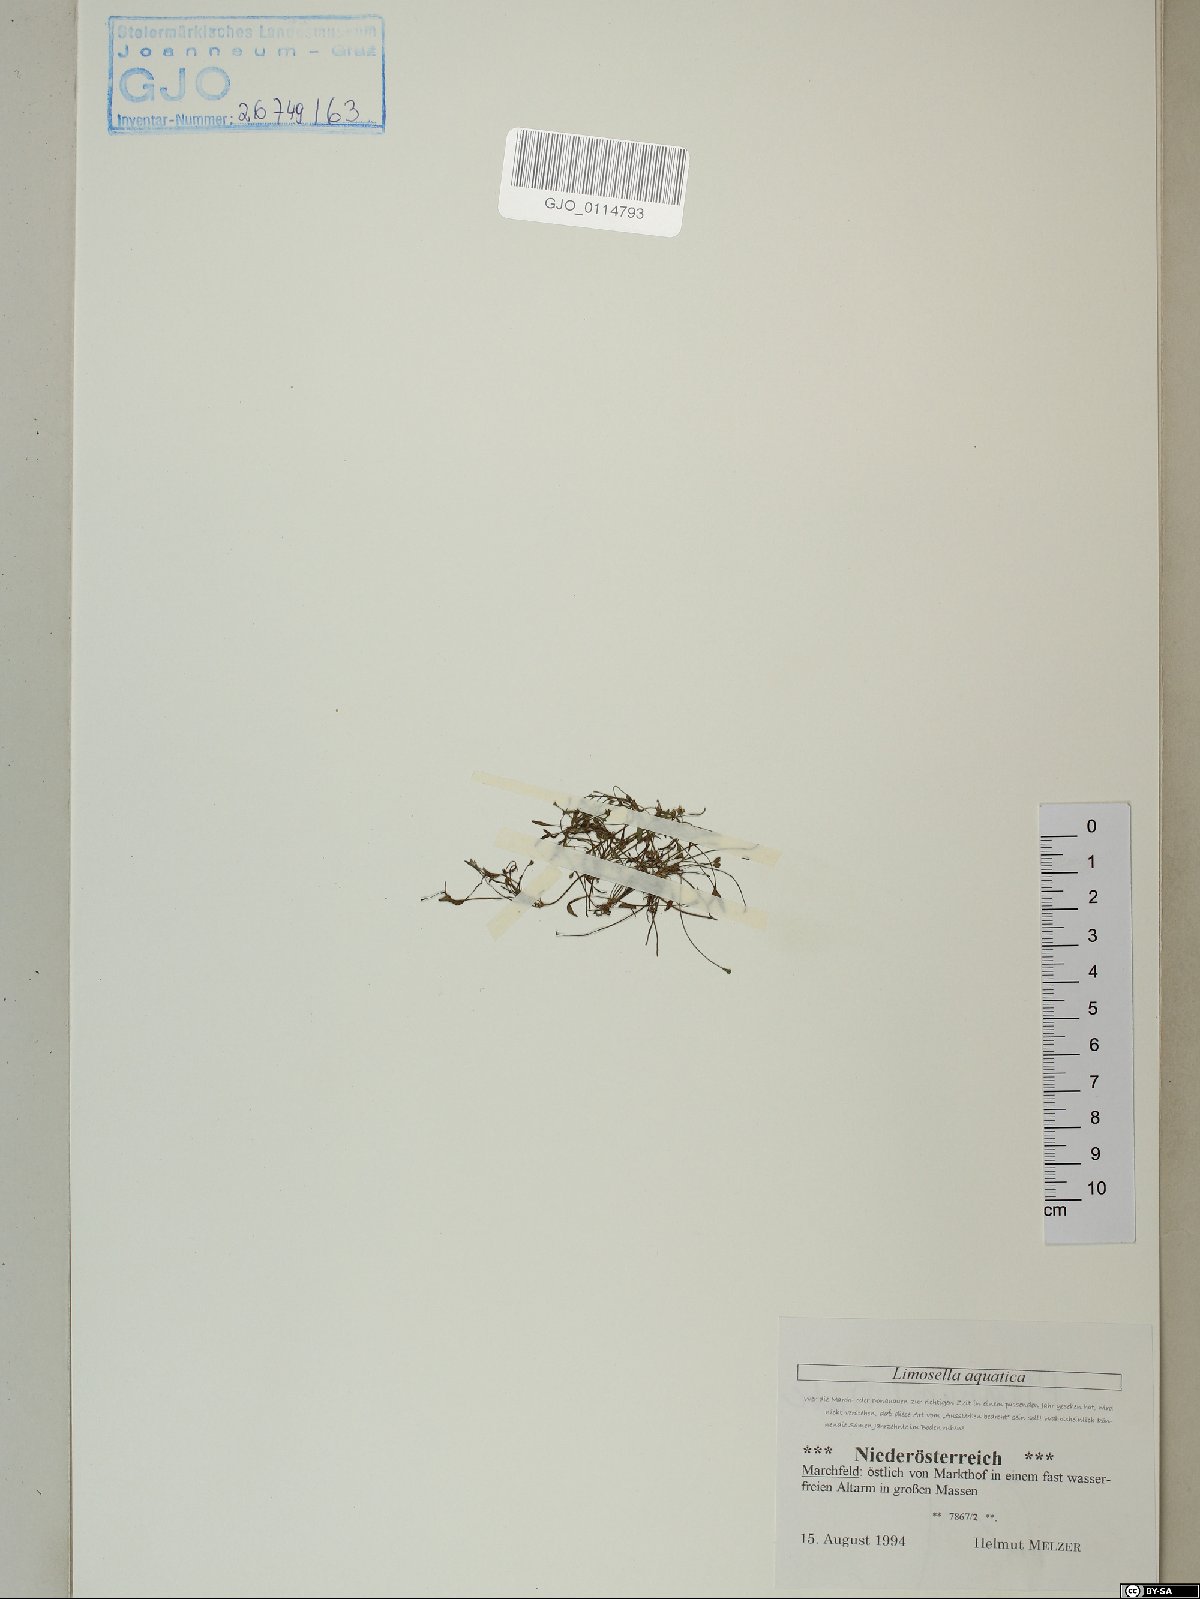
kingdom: Plantae
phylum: Tracheophyta
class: Magnoliopsida
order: Lamiales
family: Scrophulariaceae
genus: Limosella
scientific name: Limosella aquatica
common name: Mudwort
